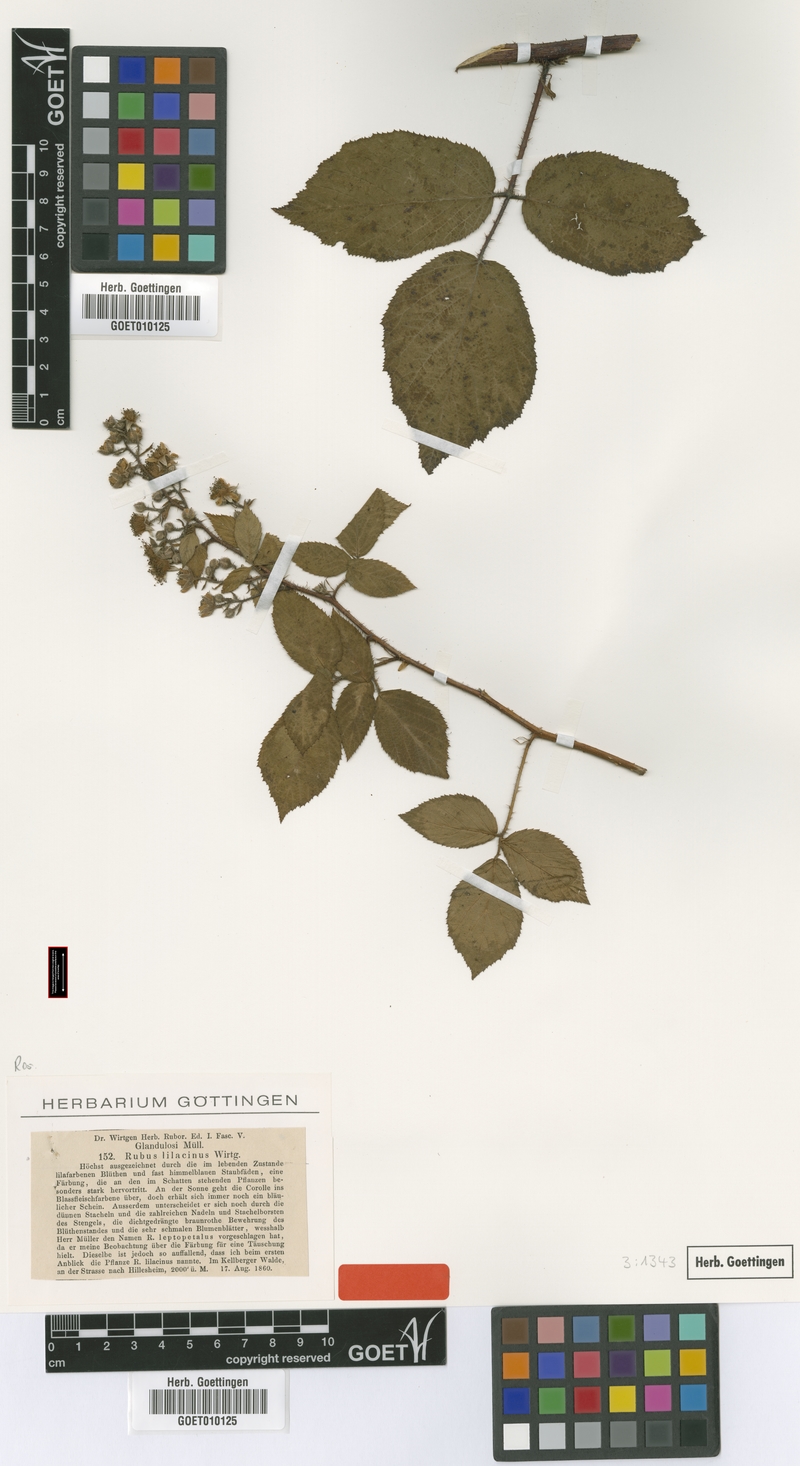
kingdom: Plantae
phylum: Tracheophyta
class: Magnoliopsida
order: Rosales
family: Rosaceae
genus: Rubus
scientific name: Rubus lilacinus
